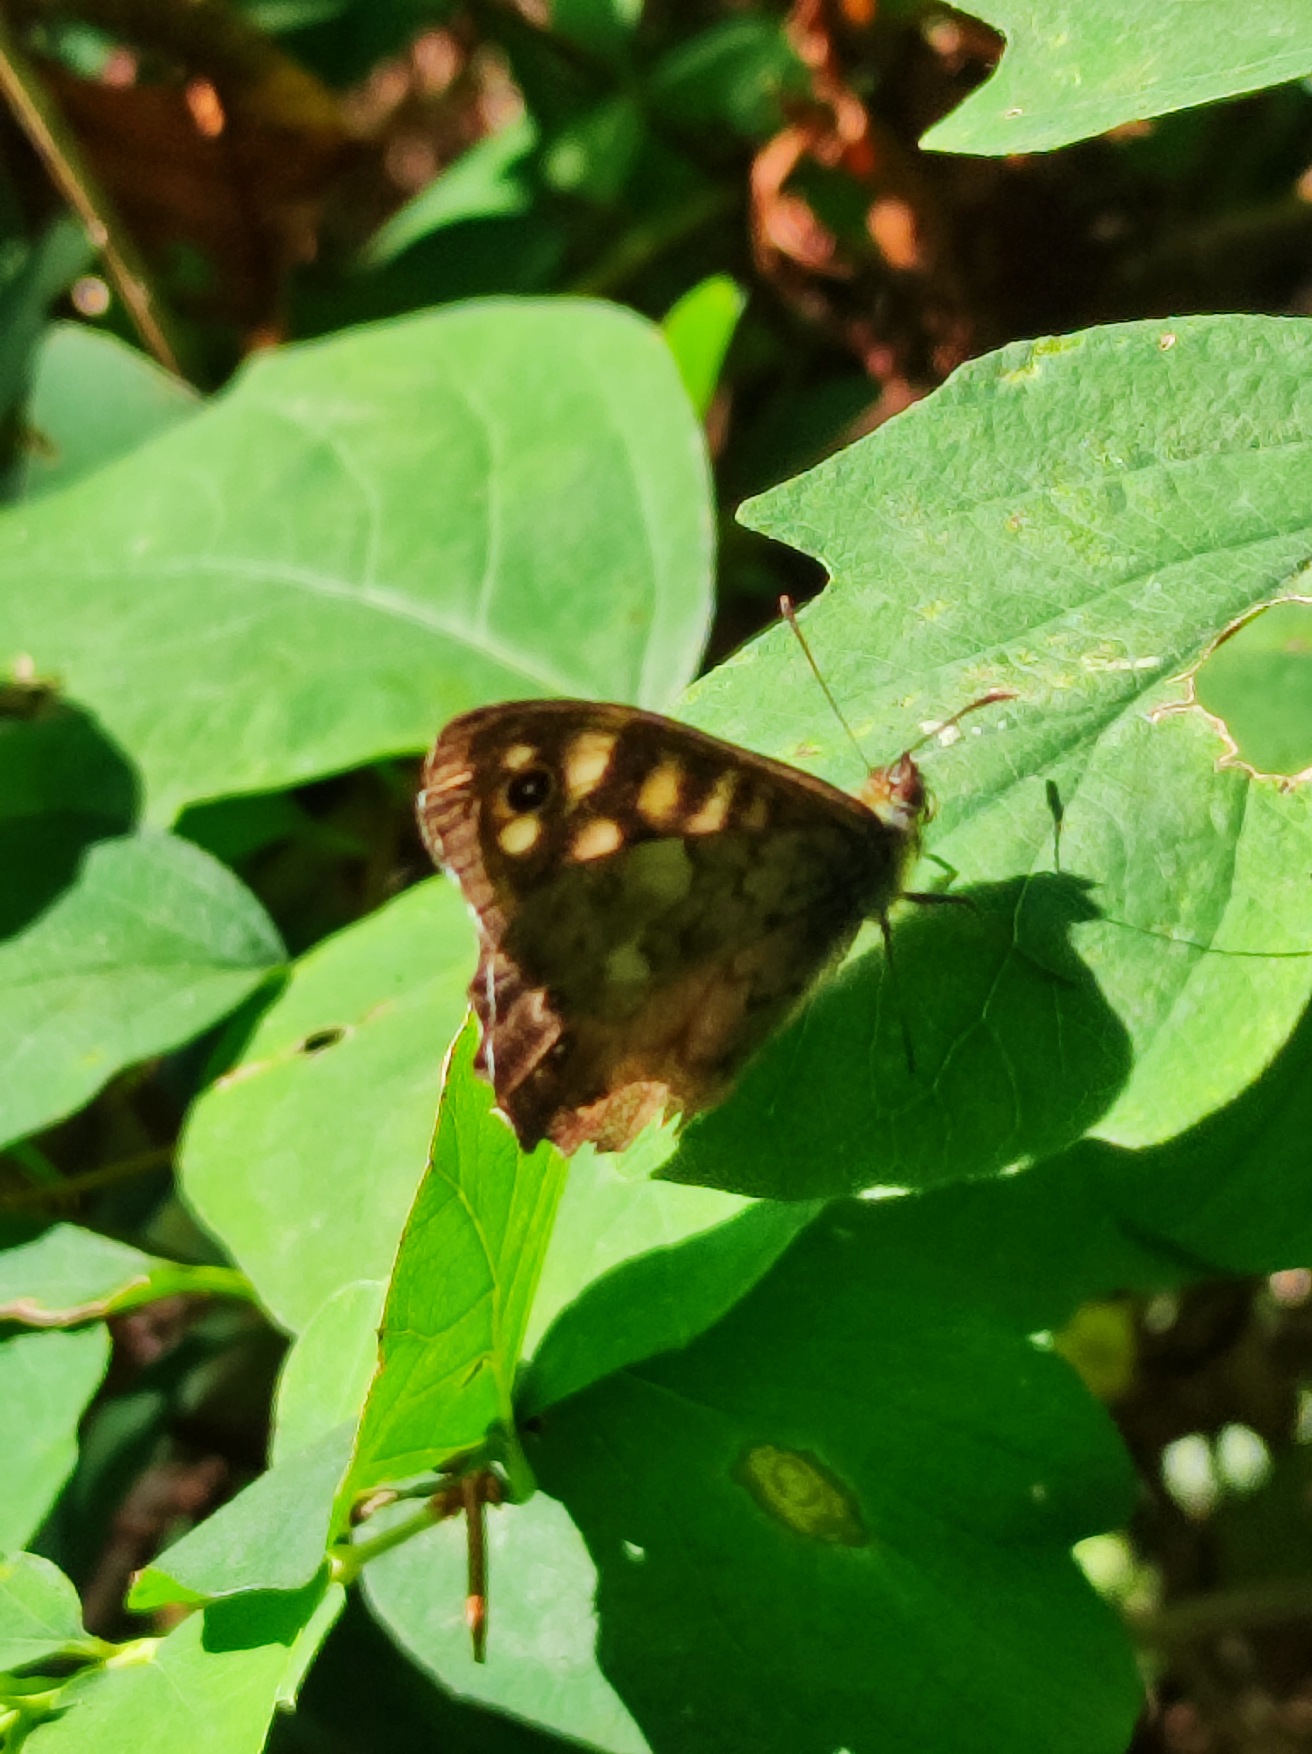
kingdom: Animalia
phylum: Arthropoda
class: Insecta
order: Lepidoptera
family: Nymphalidae
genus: Pararge
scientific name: Pararge aegeria
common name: Skovrandøje
